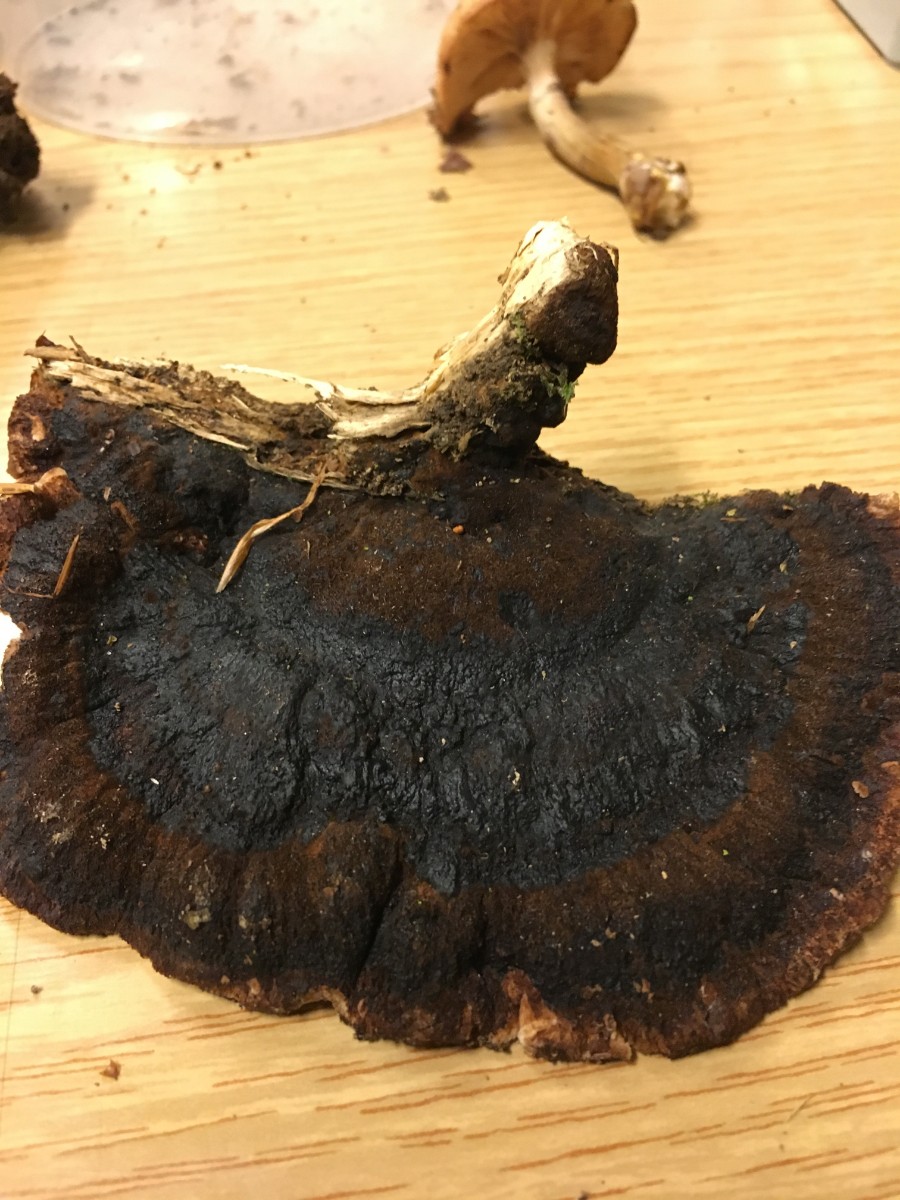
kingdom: Fungi
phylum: Basidiomycota
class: Agaricomycetes
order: Polyporales
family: Ischnodermataceae
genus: Ischnoderma
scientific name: Ischnoderma benzoinum
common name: gran-tjæreporesvamp
